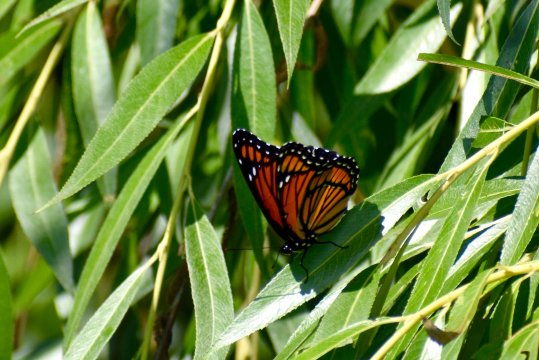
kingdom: Animalia
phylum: Arthropoda
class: Insecta
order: Lepidoptera
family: Nymphalidae
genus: Limenitis
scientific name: Limenitis archippus
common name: Viceroy
